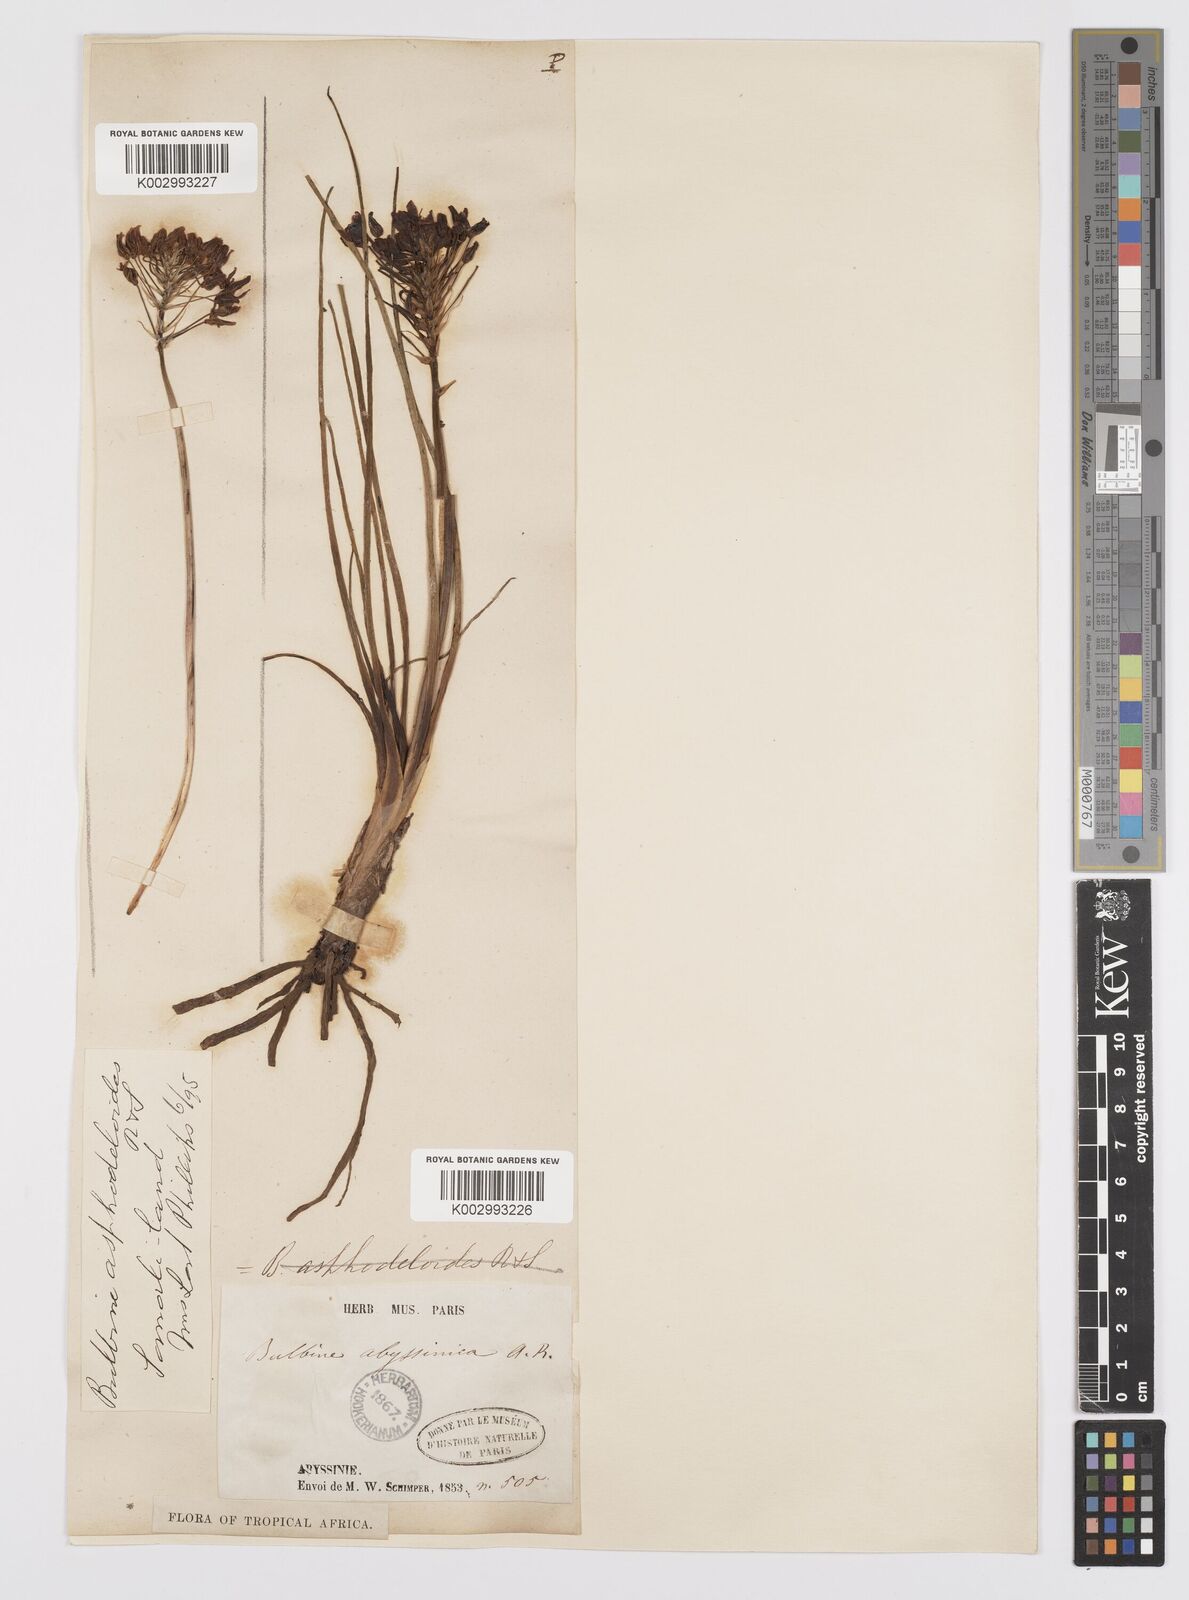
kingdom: Plantae
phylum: Tracheophyta
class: Liliopsida
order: Asparagales
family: Asphodelaceae
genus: Bulbine
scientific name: Bulbine abyssinica
